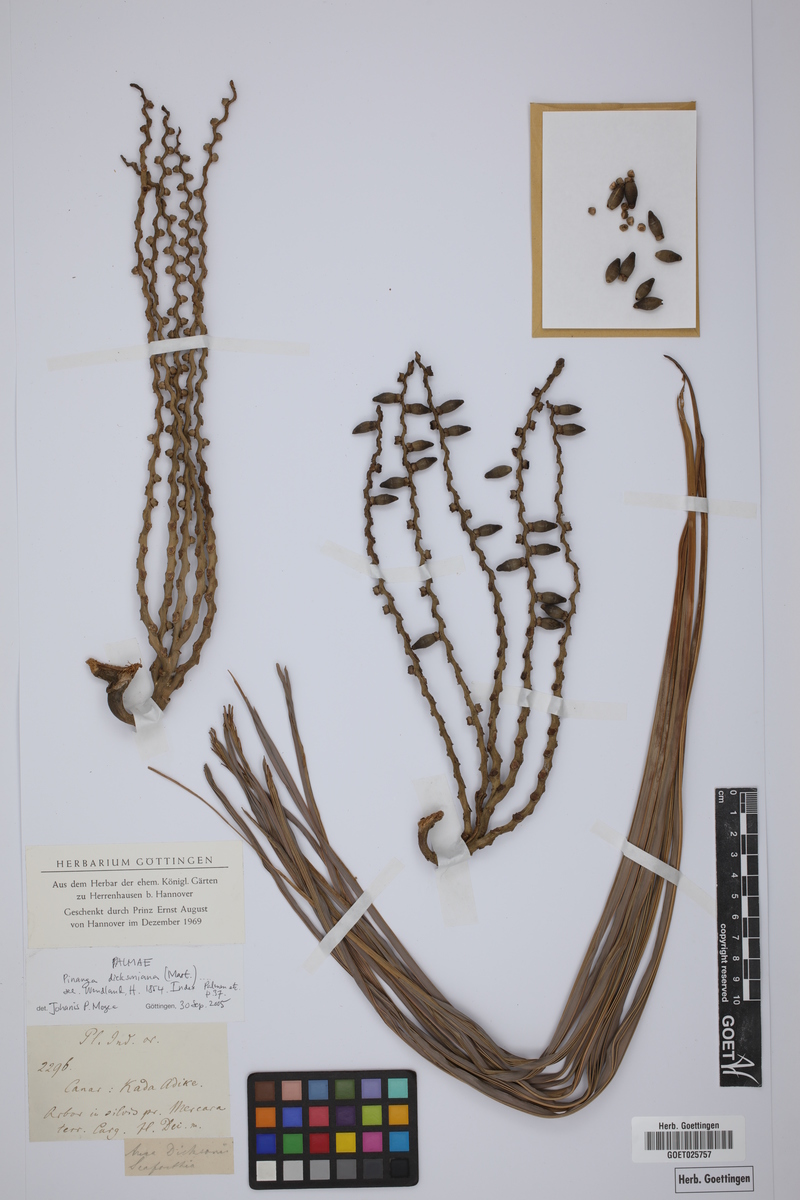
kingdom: Plantae
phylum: Tracheophyta
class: Liliopsida
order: Arecales
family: Arecaceae
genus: Pinanga
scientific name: Pinanga
